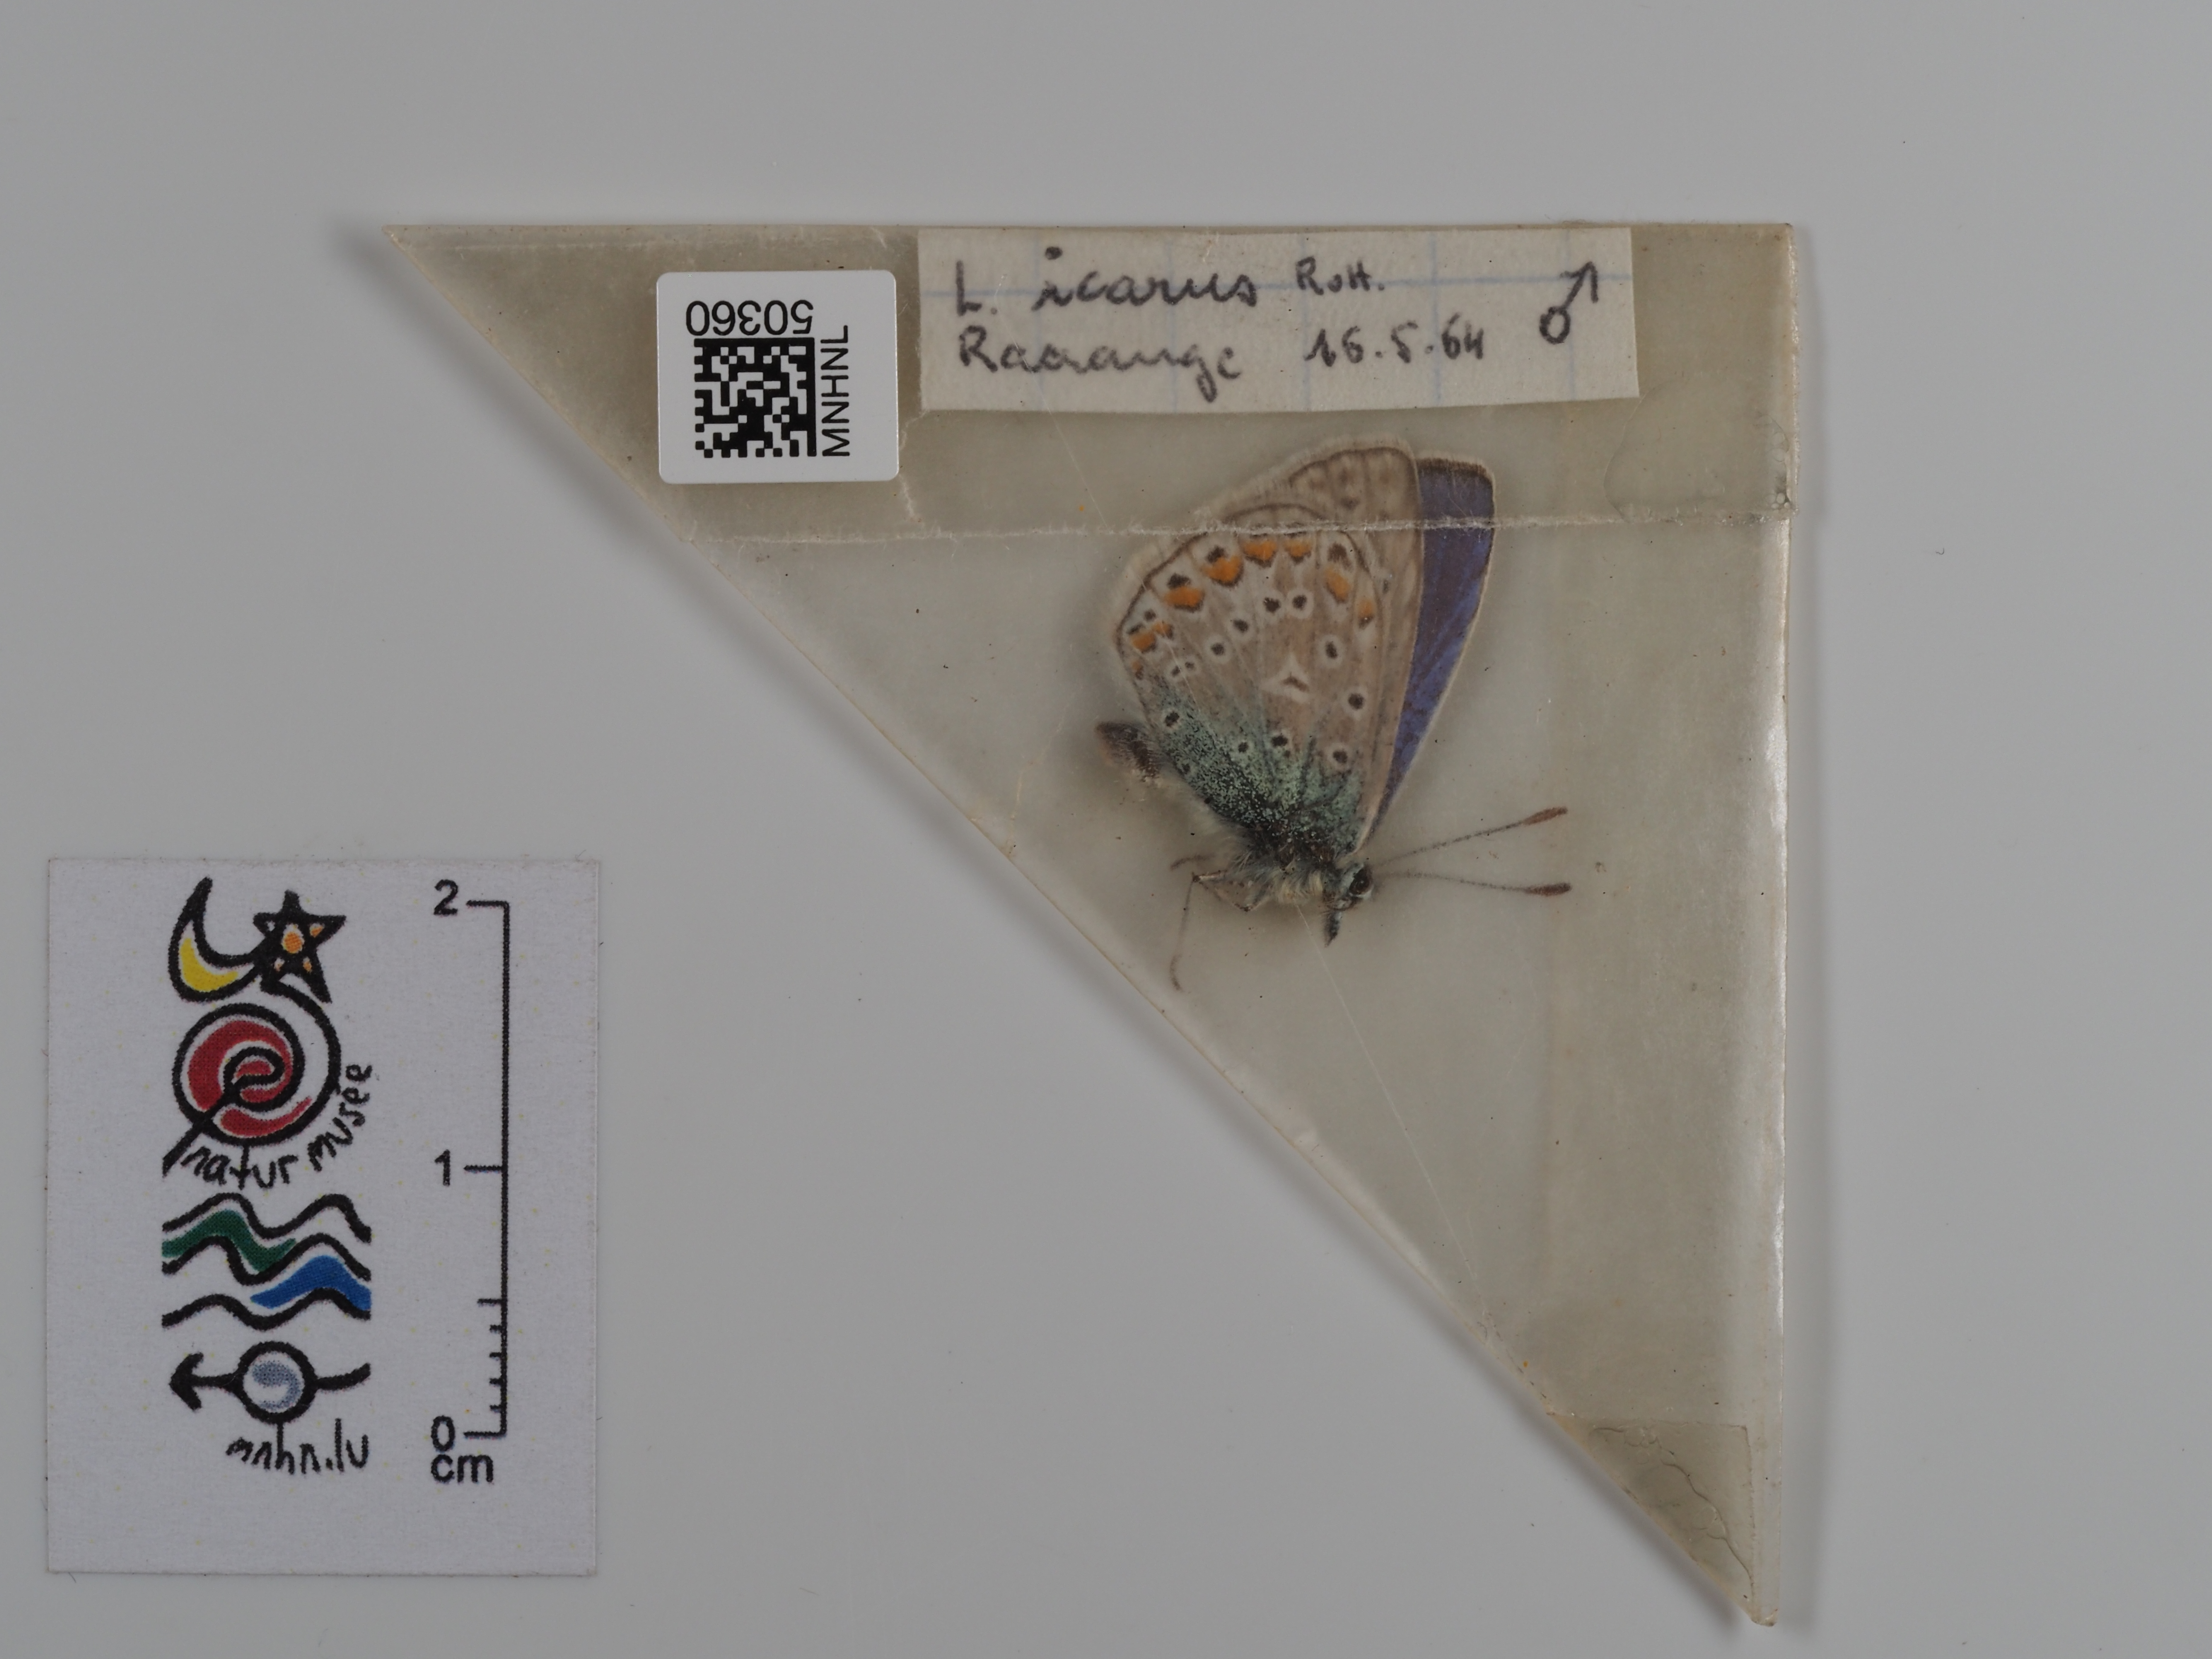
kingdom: Animalia
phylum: Arthropoda
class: Insecta
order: Lepidoptera
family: Lycaenidae
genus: Polyommatus
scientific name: Polyommatus icarus
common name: Common blue
